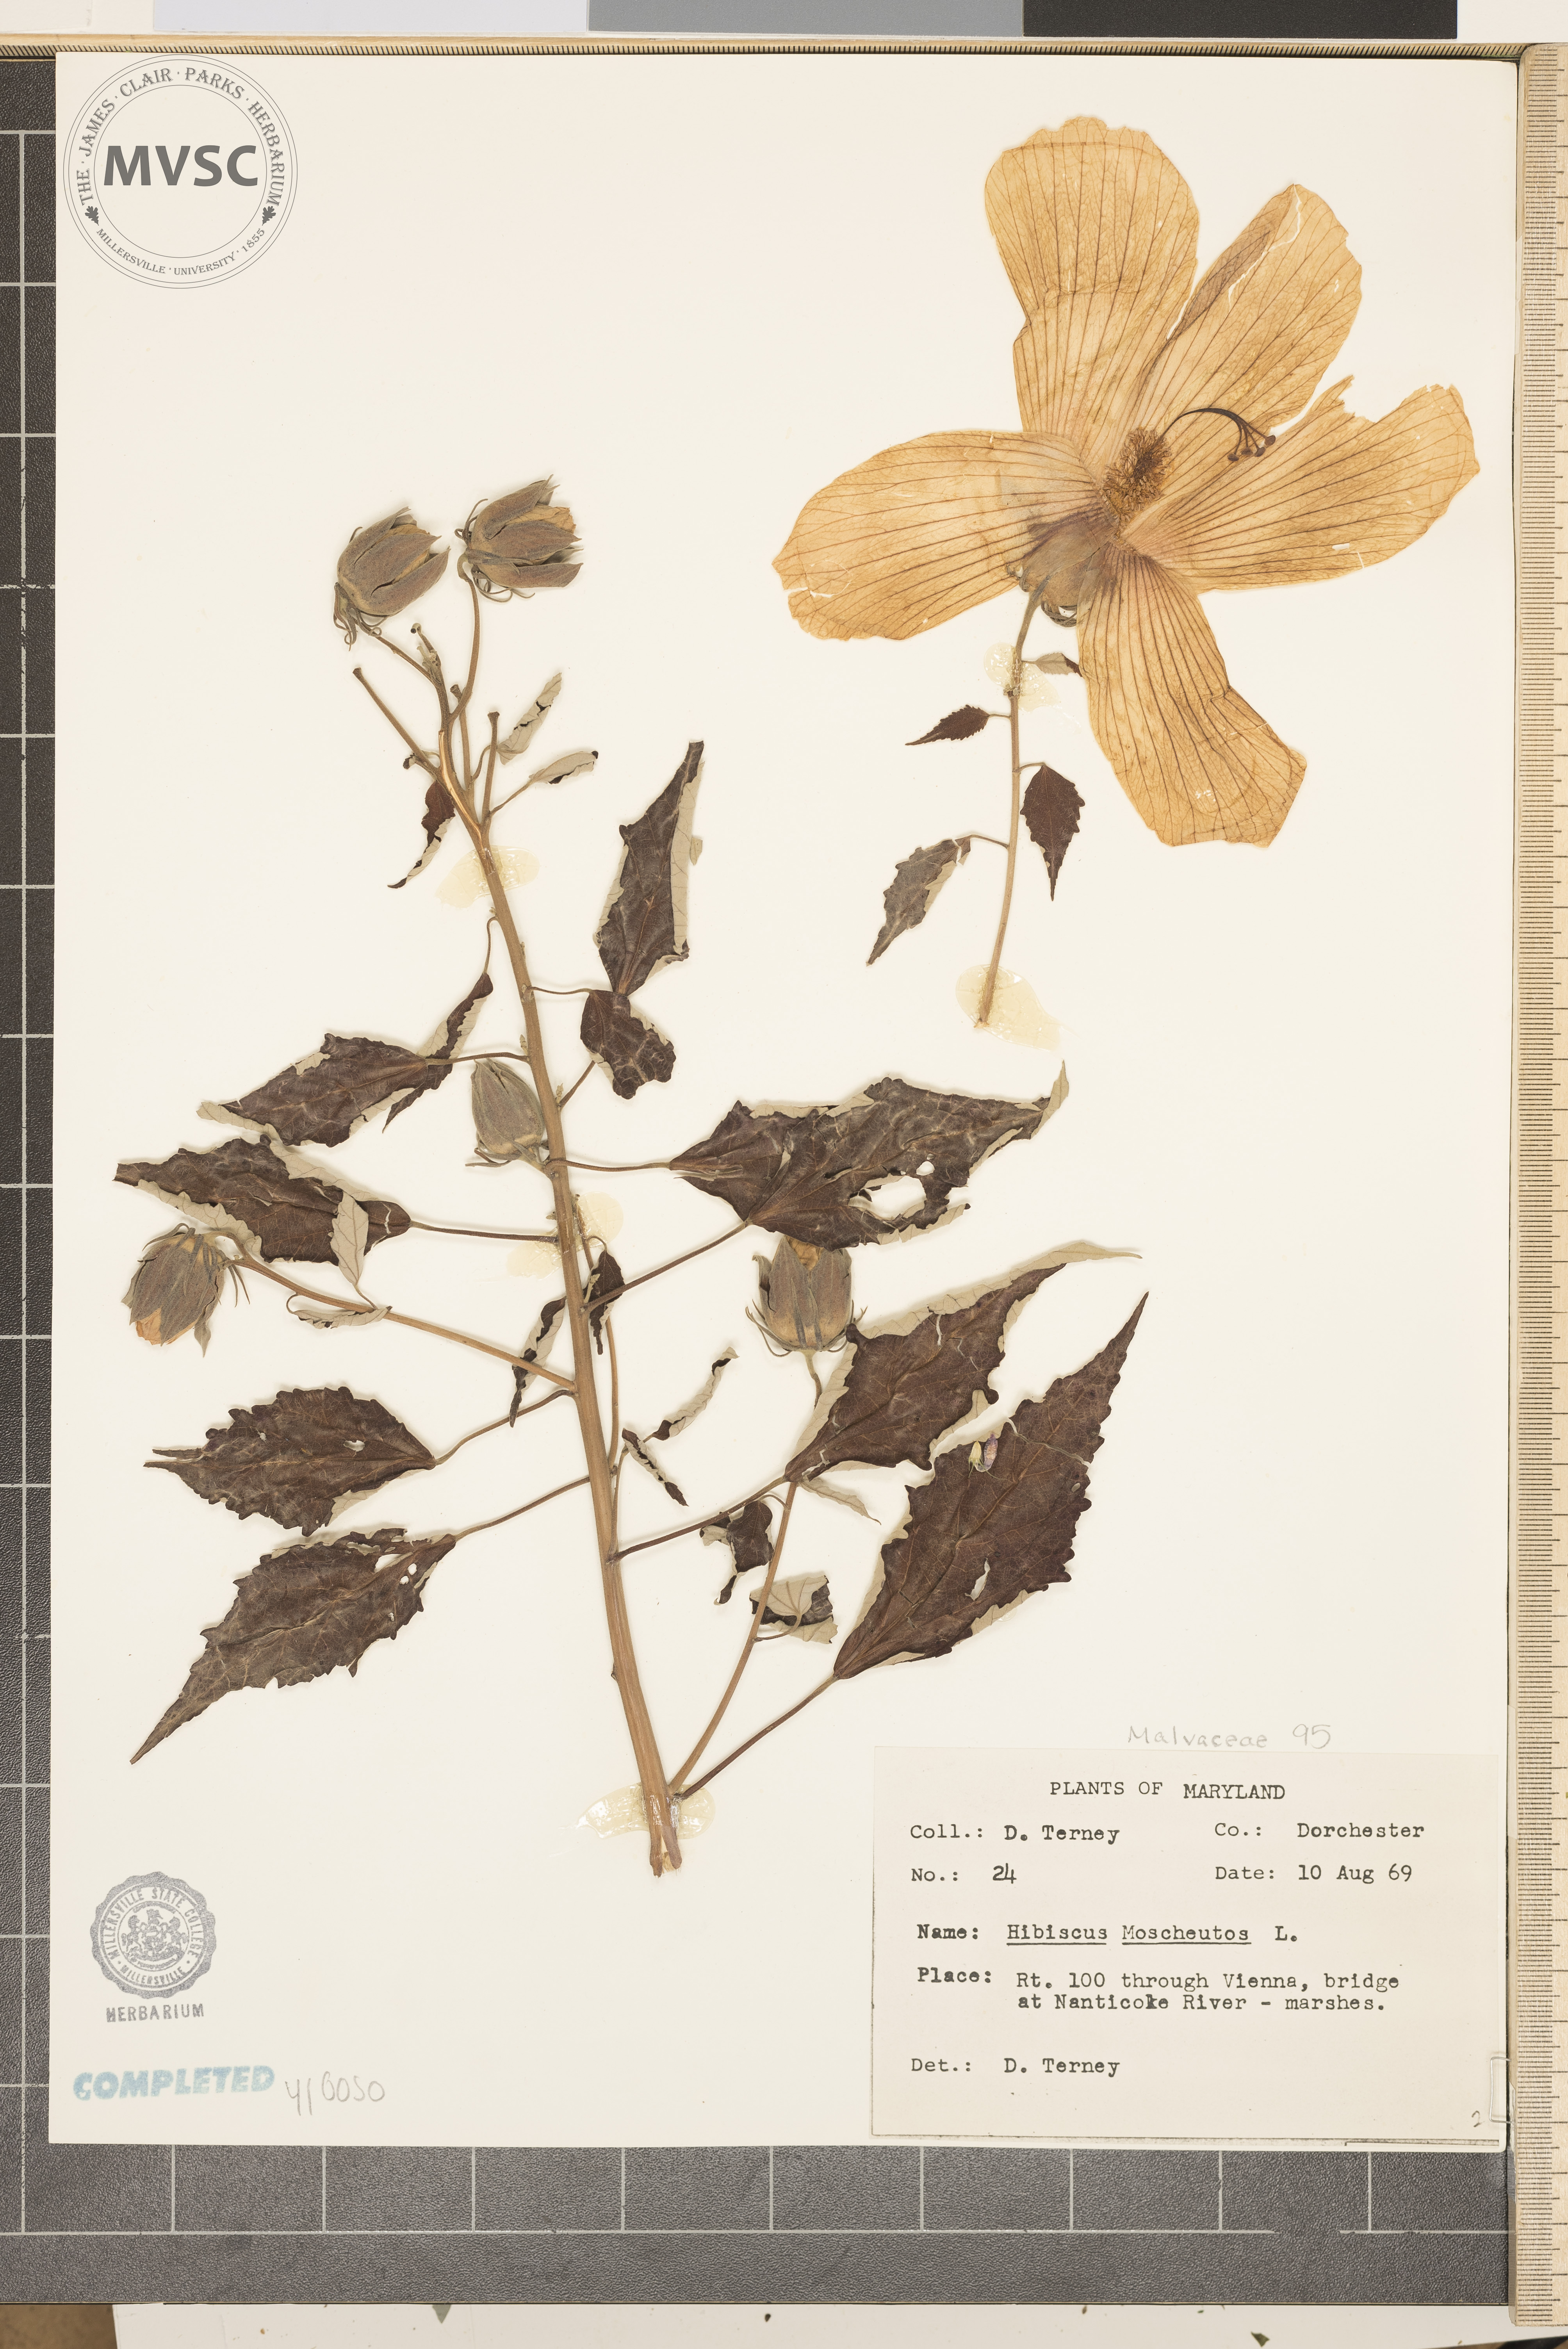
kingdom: Plantae
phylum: Tracheophyta
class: Magnoliopsida
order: Malvales
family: Malvaceae
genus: Hibiscus
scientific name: Hibiscus moscheutos
